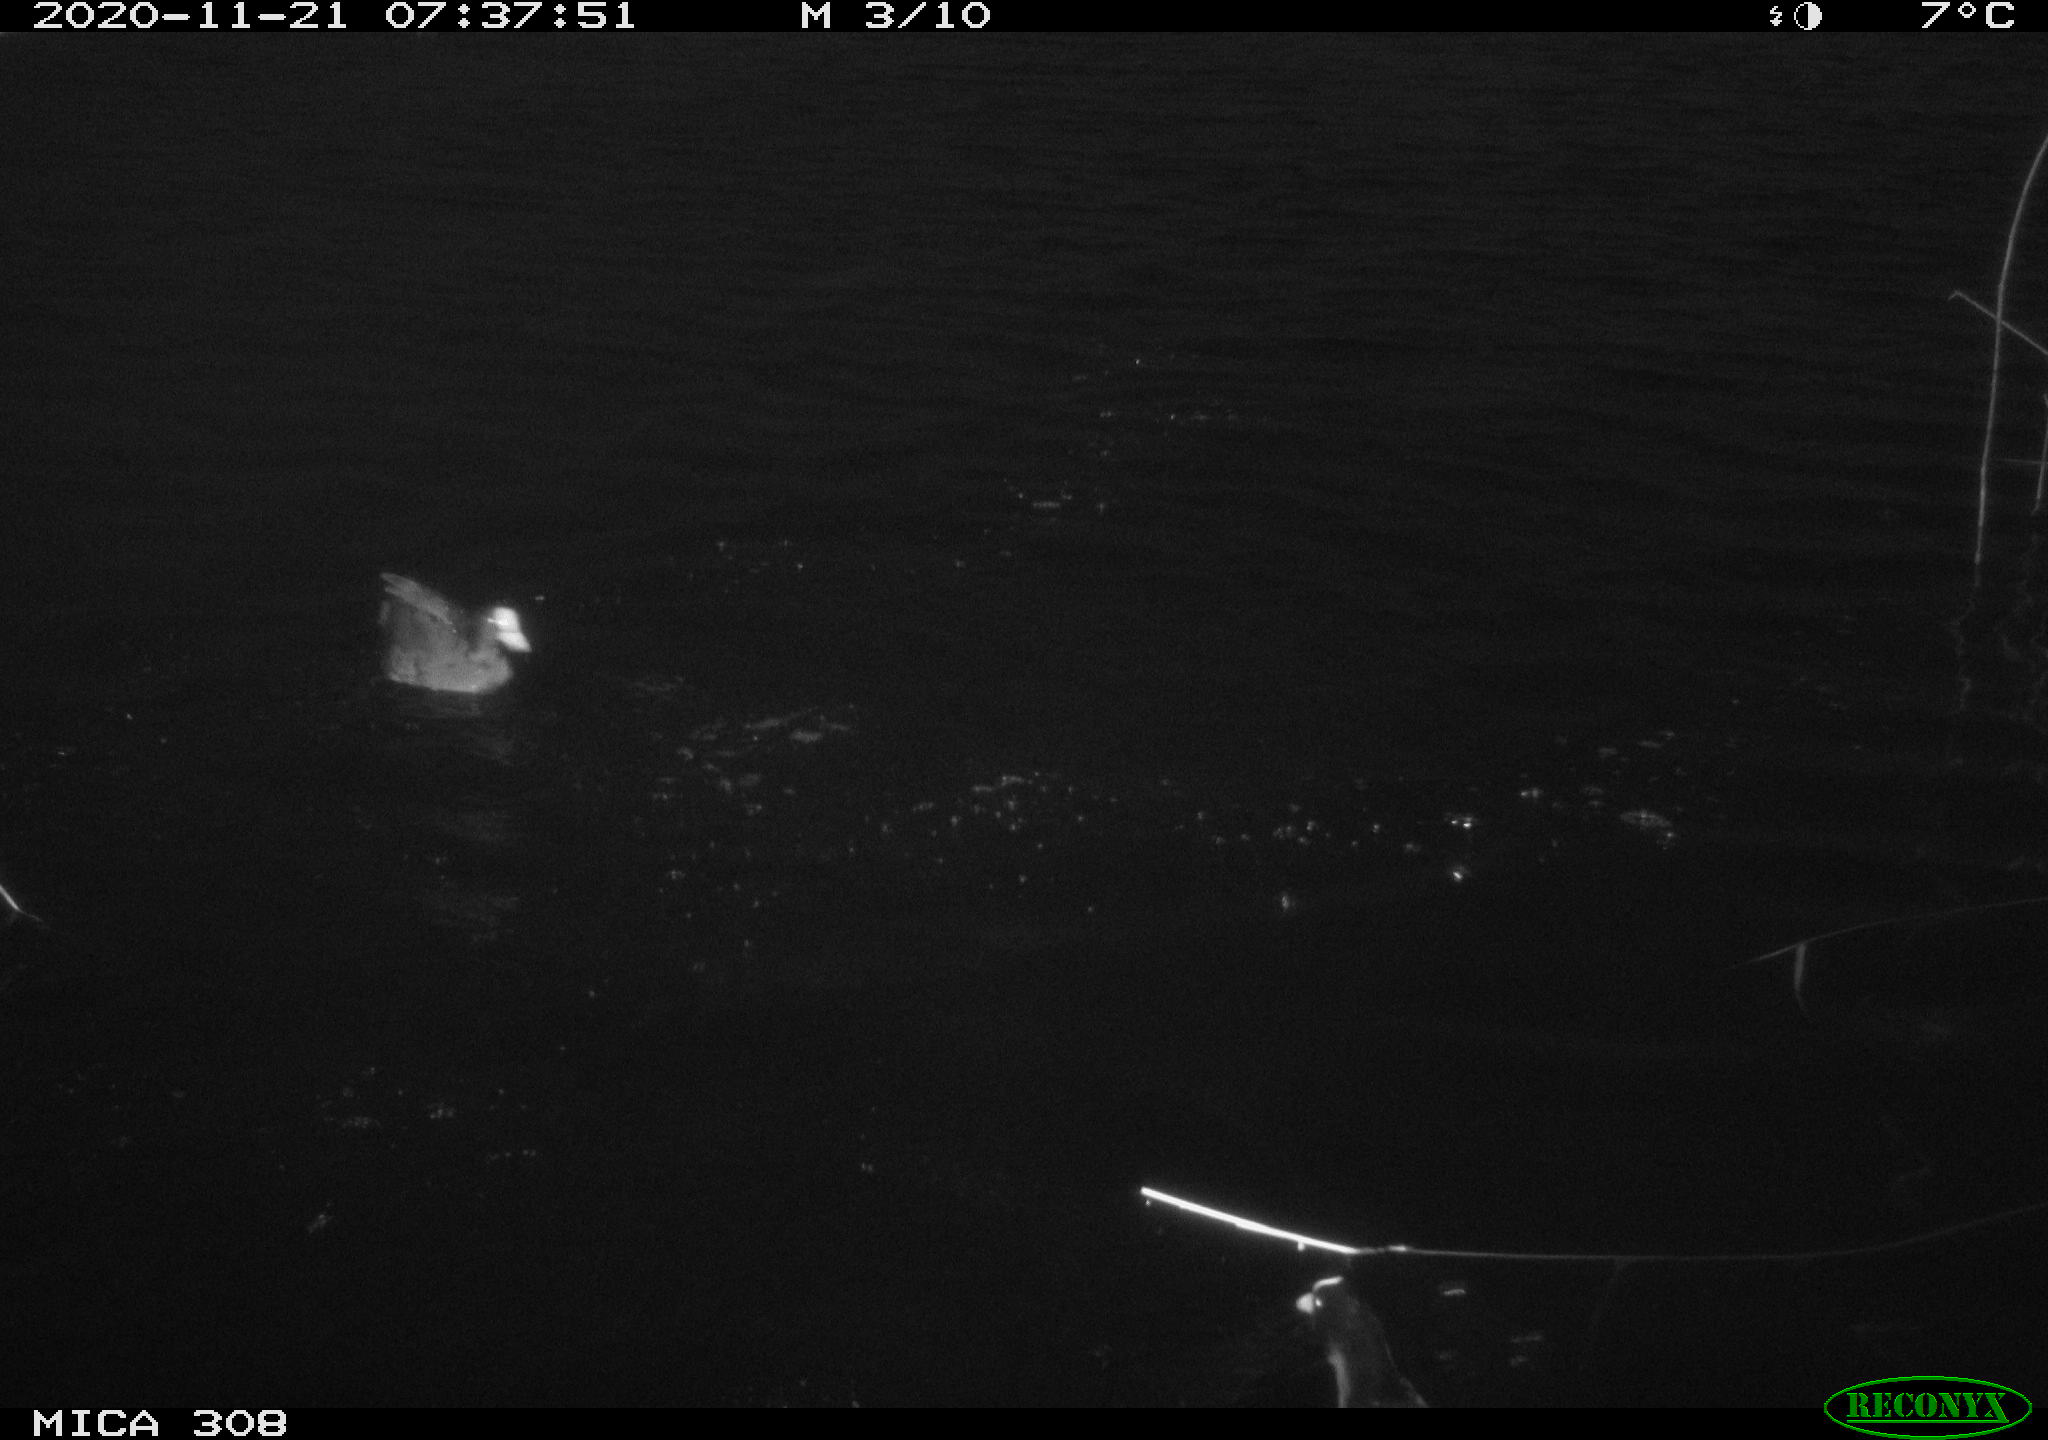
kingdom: Animalia
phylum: Chordata
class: Aves
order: Gruiformes
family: Rallidae
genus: Gallinula
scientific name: Gallinula chloropus
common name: Common moorhen
